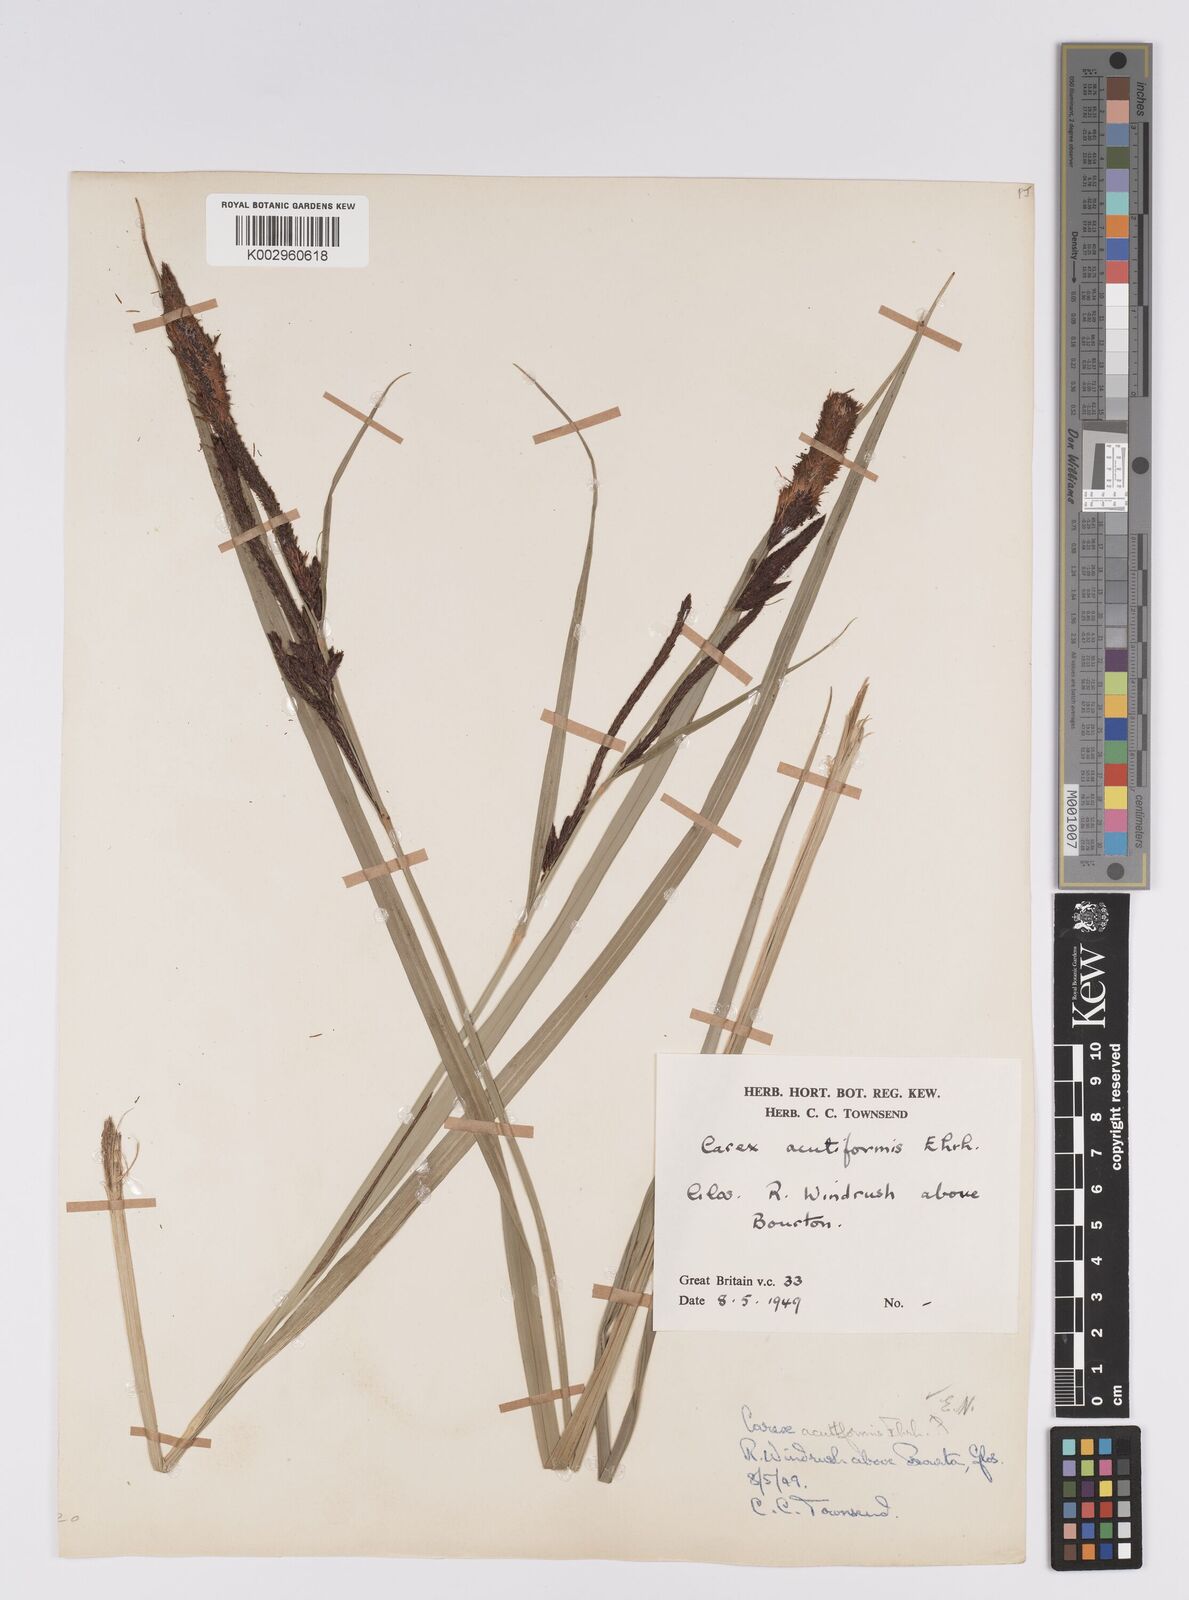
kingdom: Plantae
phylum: Tracheophyta
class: Liliopsida
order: Poales
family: Cyperaceae
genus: Carex
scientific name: Carex acutiformis
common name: Lesser pond-sedge
